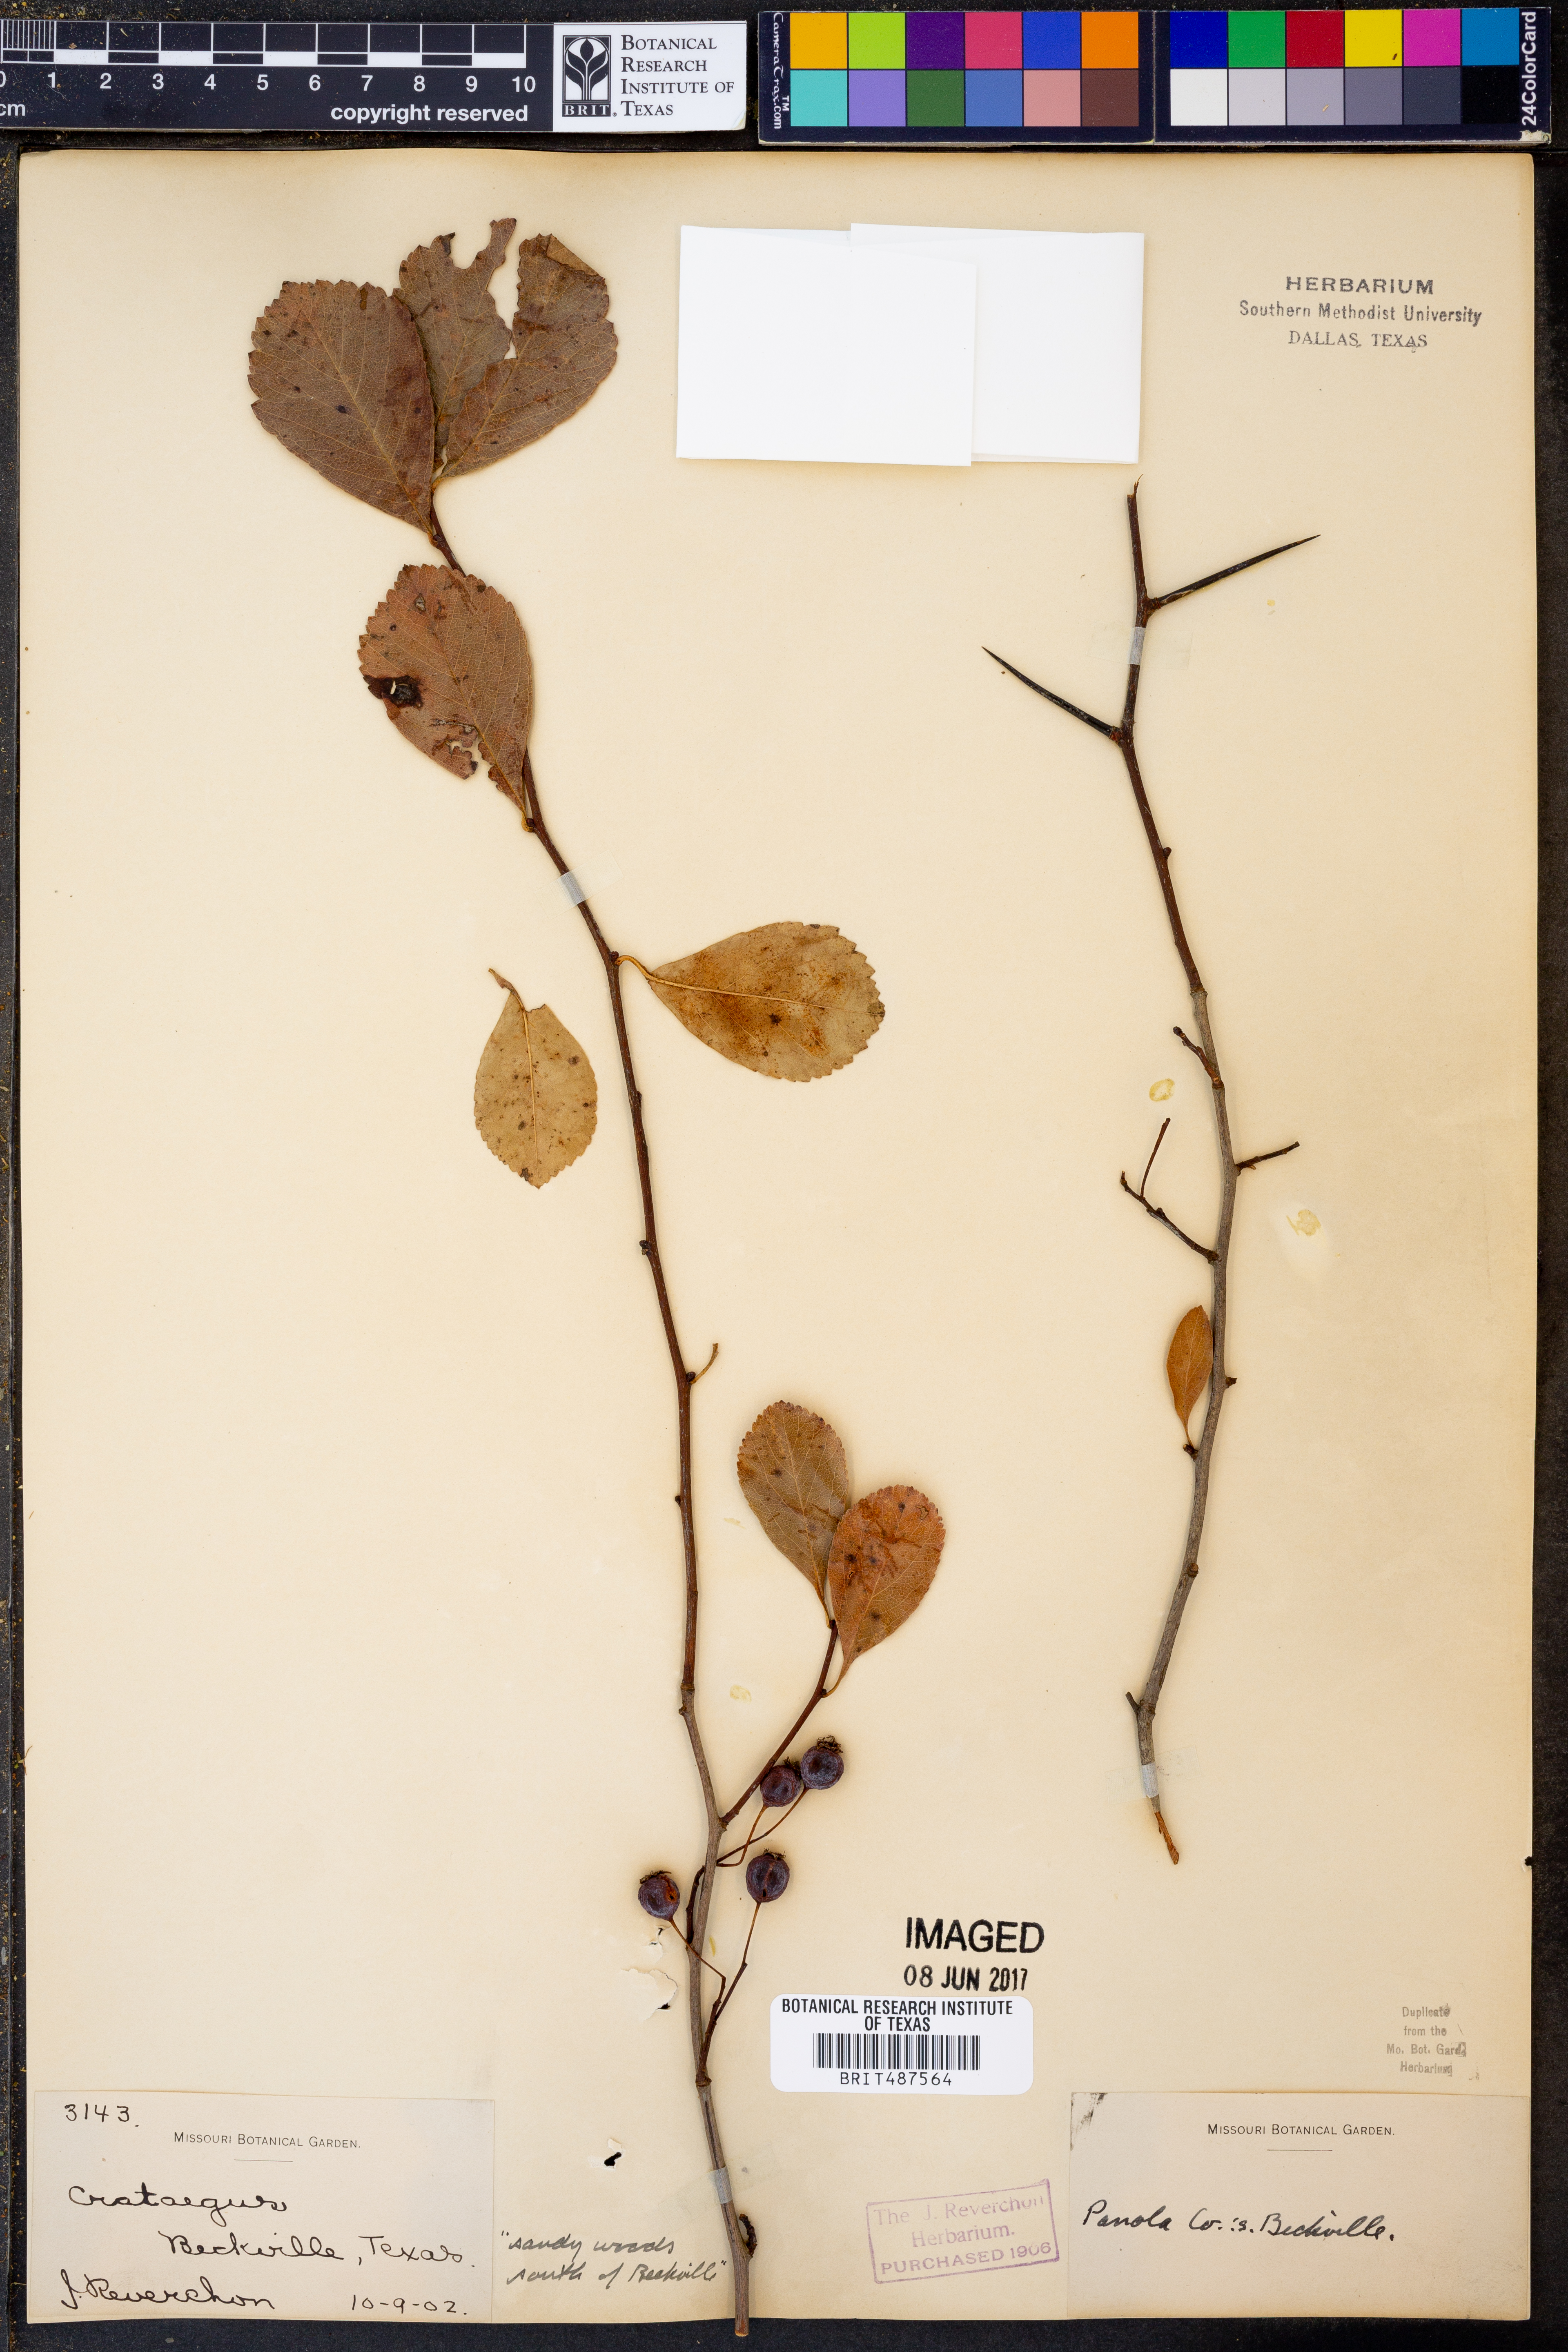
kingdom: Plantae
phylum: Tracheophyta
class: Magnoliopsida
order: Rosales
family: Rosaceae
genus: Crataegus
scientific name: Crataegus
